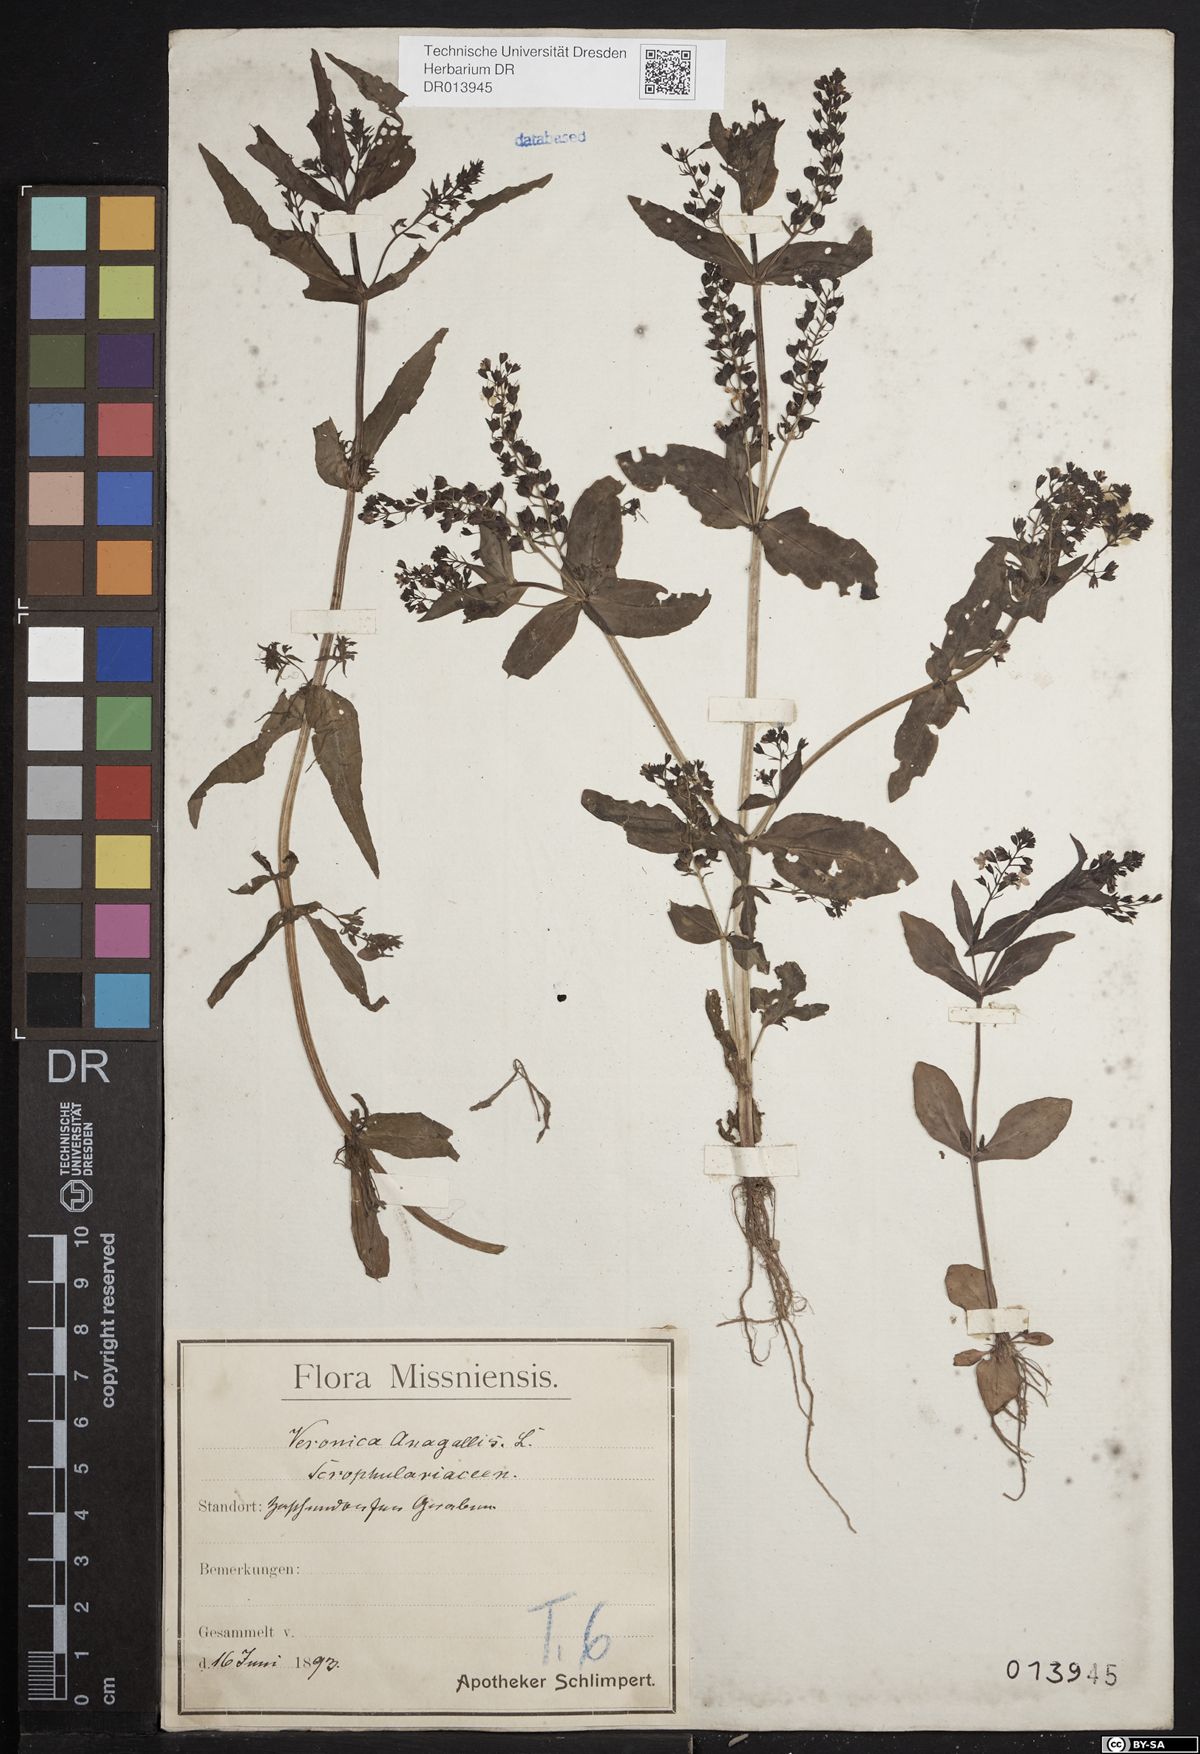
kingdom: Plantae
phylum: Tracheophyta
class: Magnoliopsida
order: Lamiales
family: Plantaginaceae
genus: Veronica
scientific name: Veronica anagallis-aquatica
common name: Water speedwell
